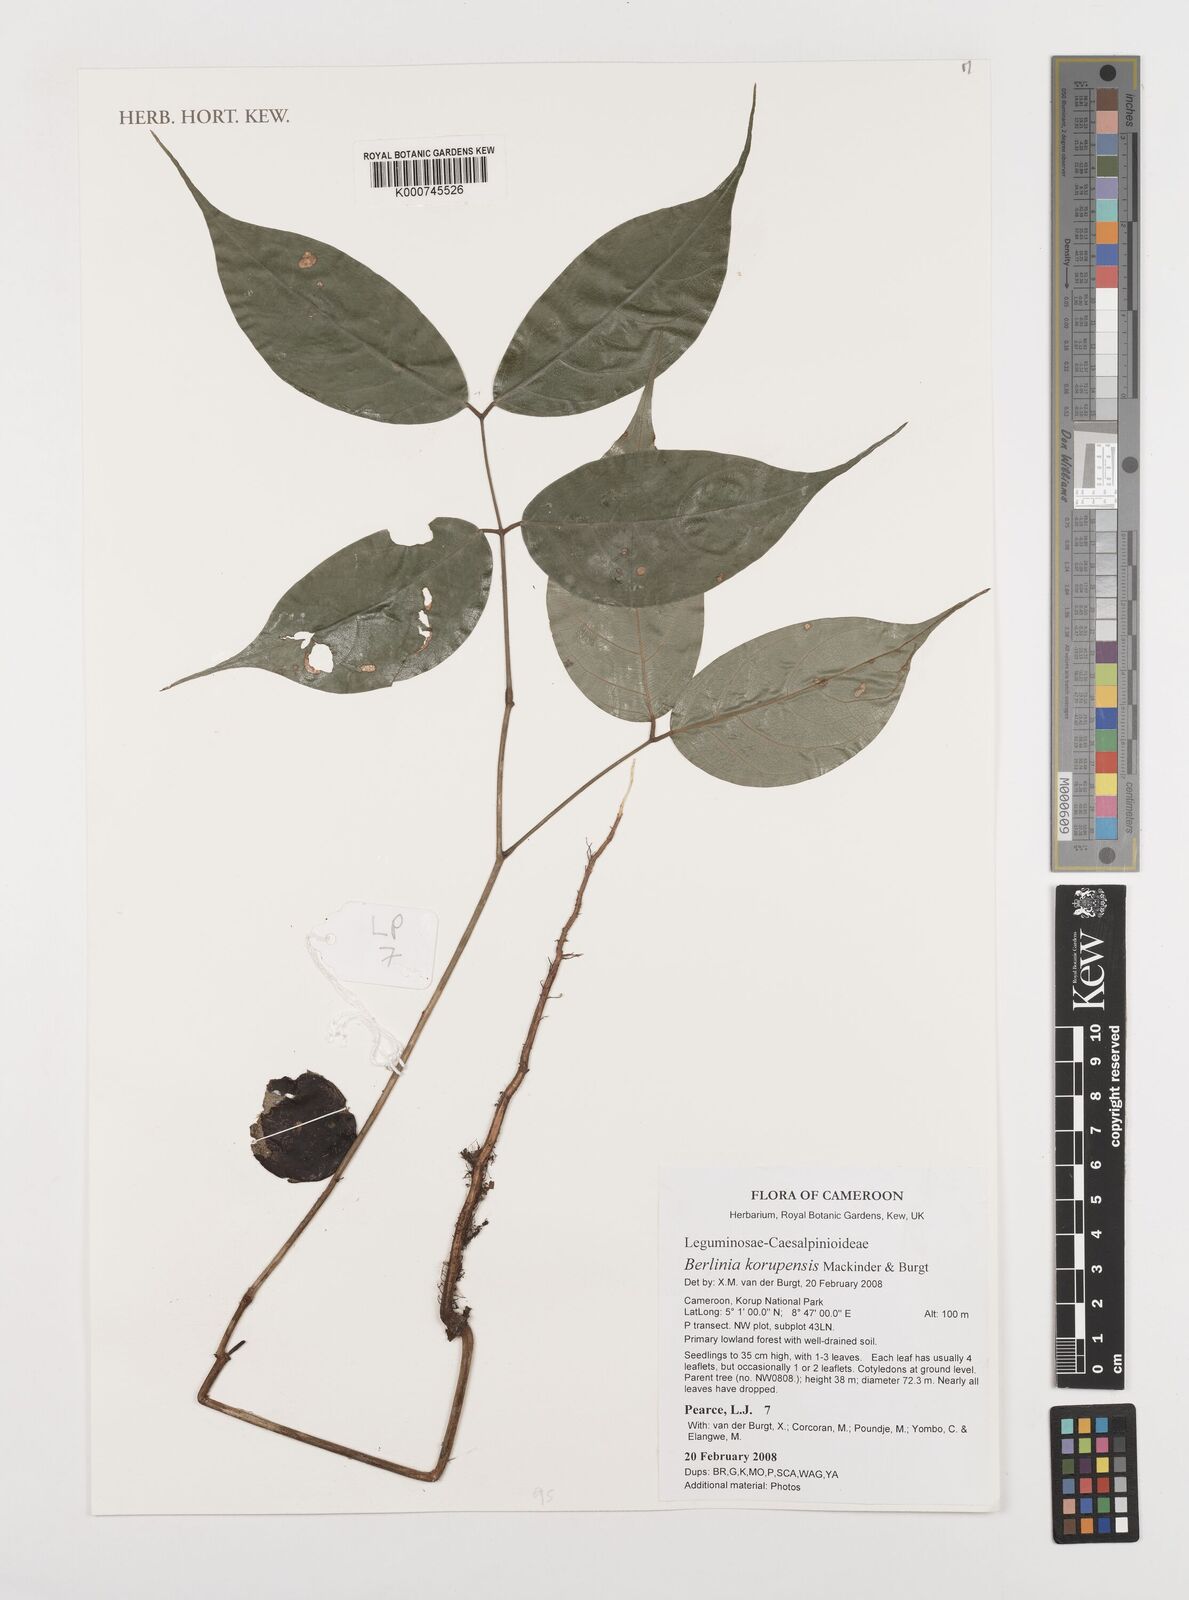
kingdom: Plantae
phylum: Tracheophyta
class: Magnoliopsida
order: Fabales
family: Fabaceae
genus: Berlinia
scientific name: Berlinia korupensis
